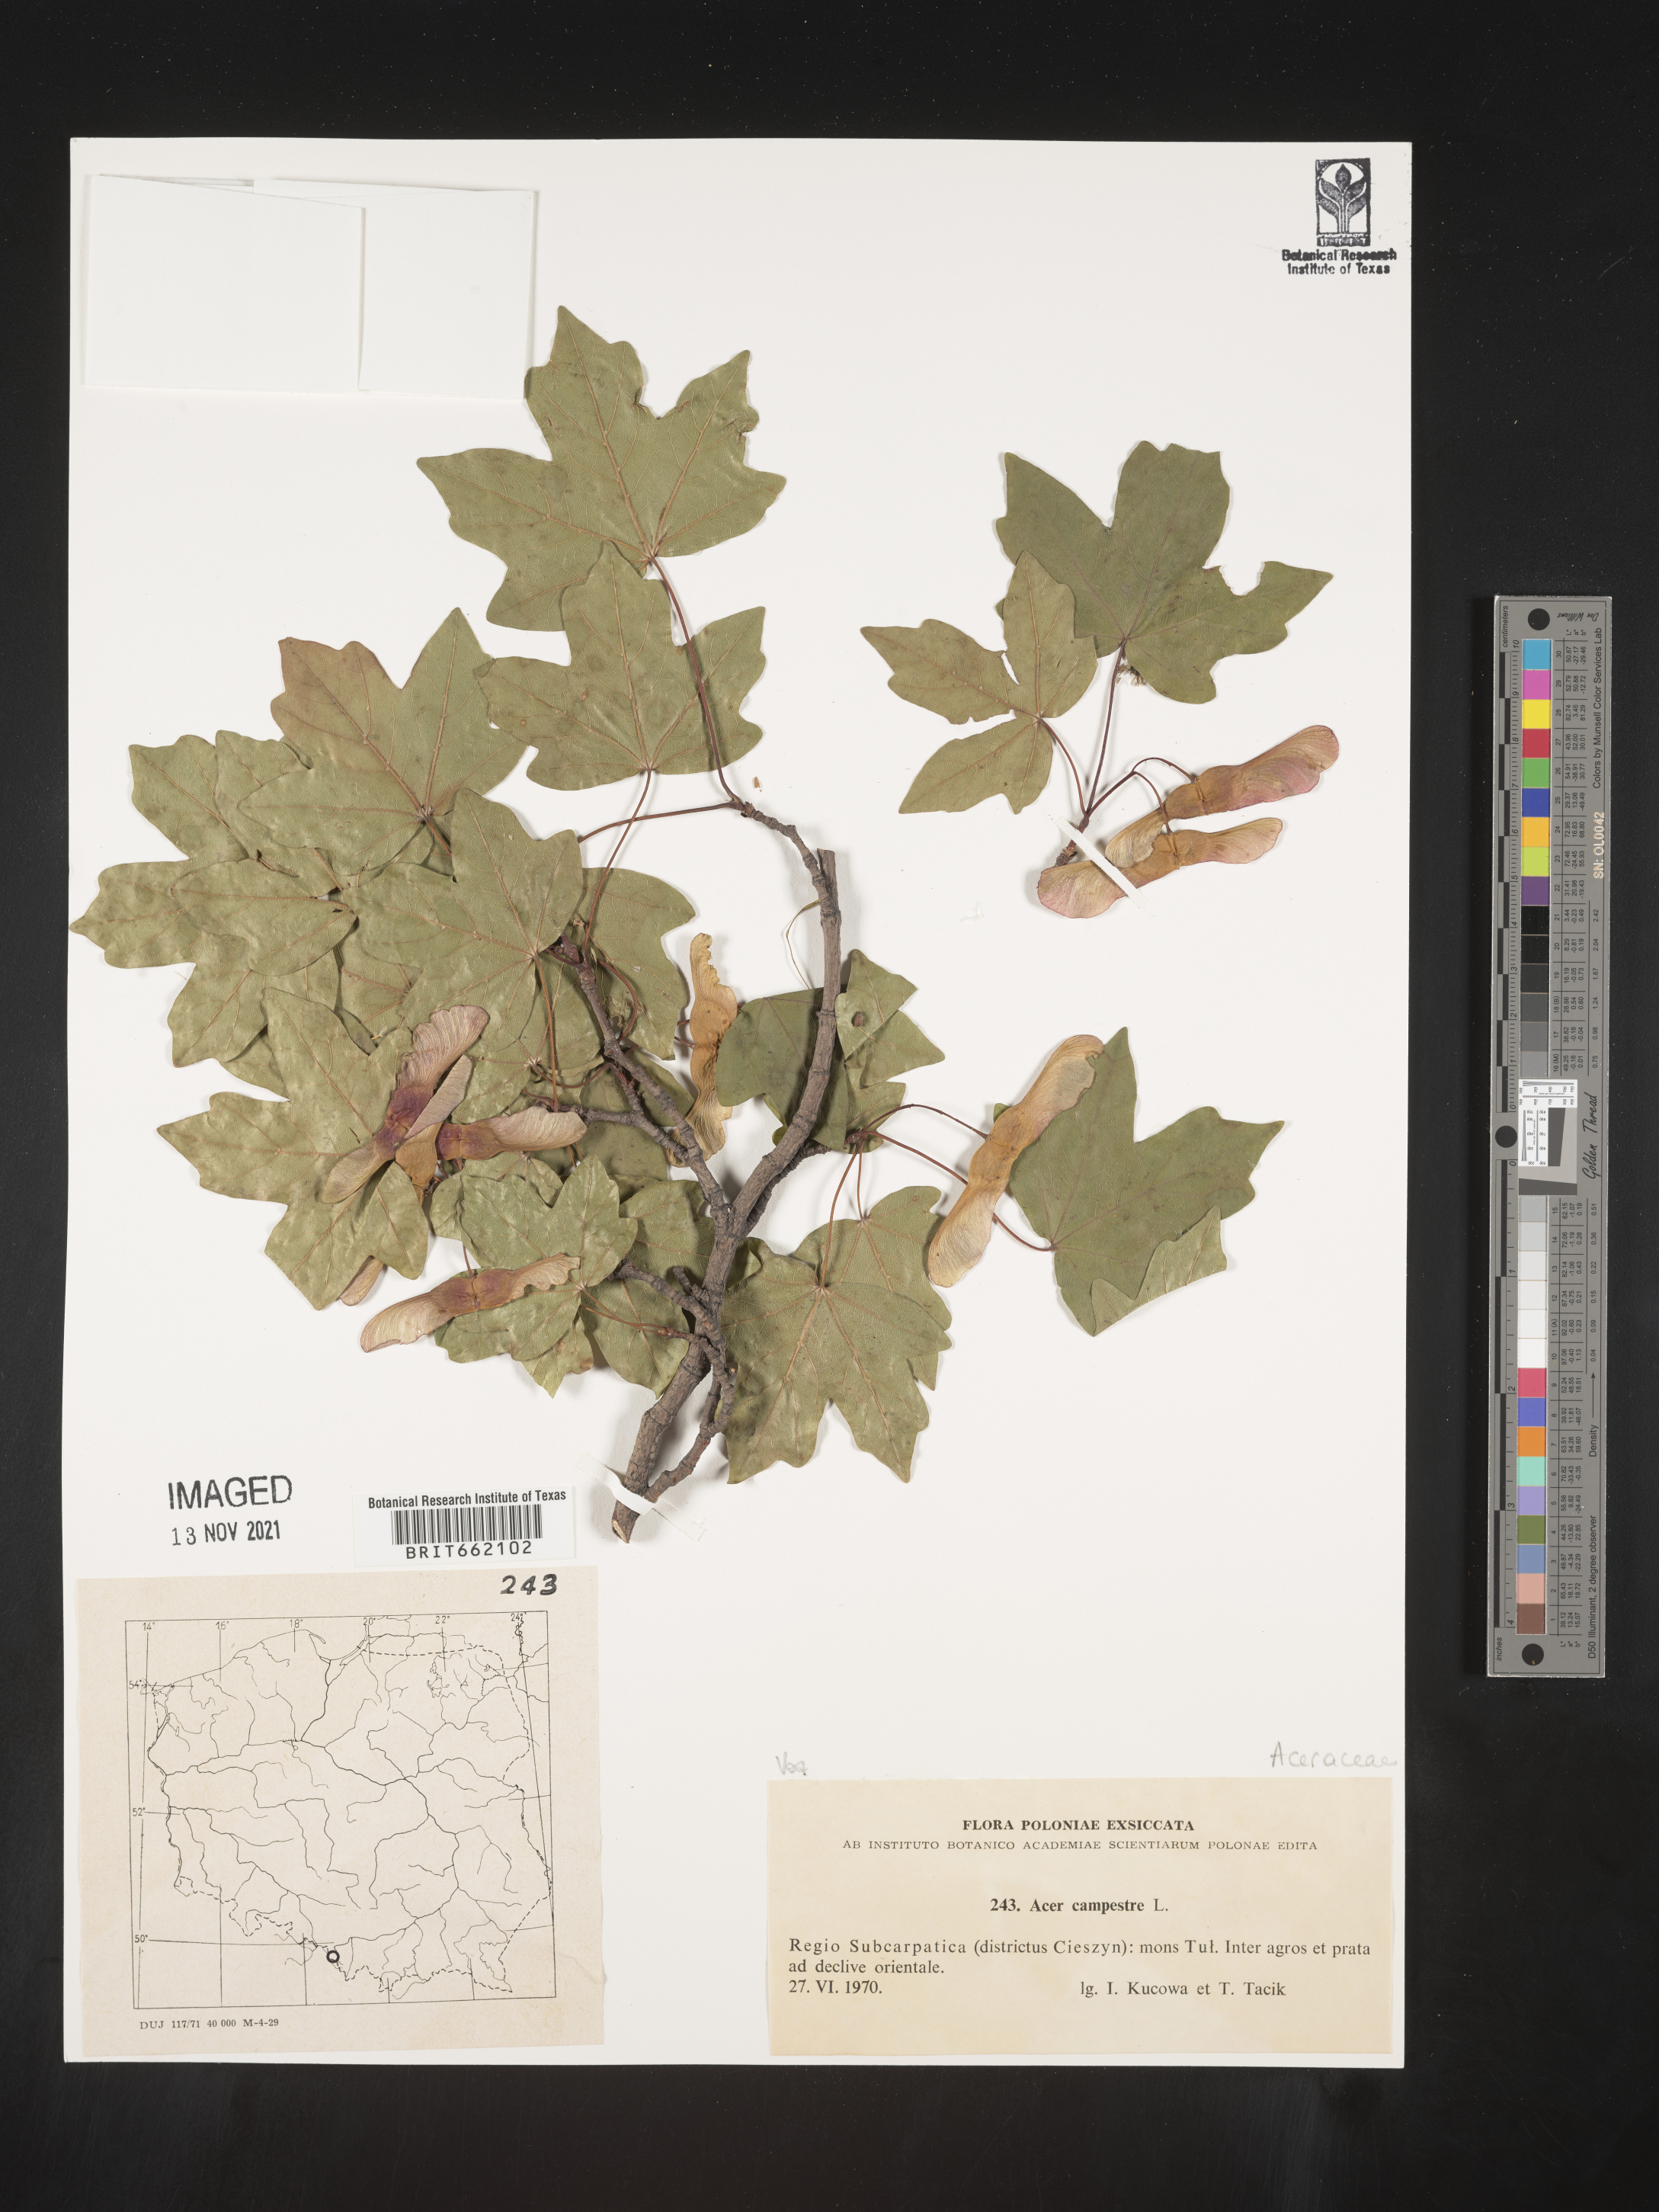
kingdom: Plantae
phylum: Tracheophyta
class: Magnoliopsida
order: Sapindales
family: Sapindaceae
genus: Acer
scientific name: Acer
